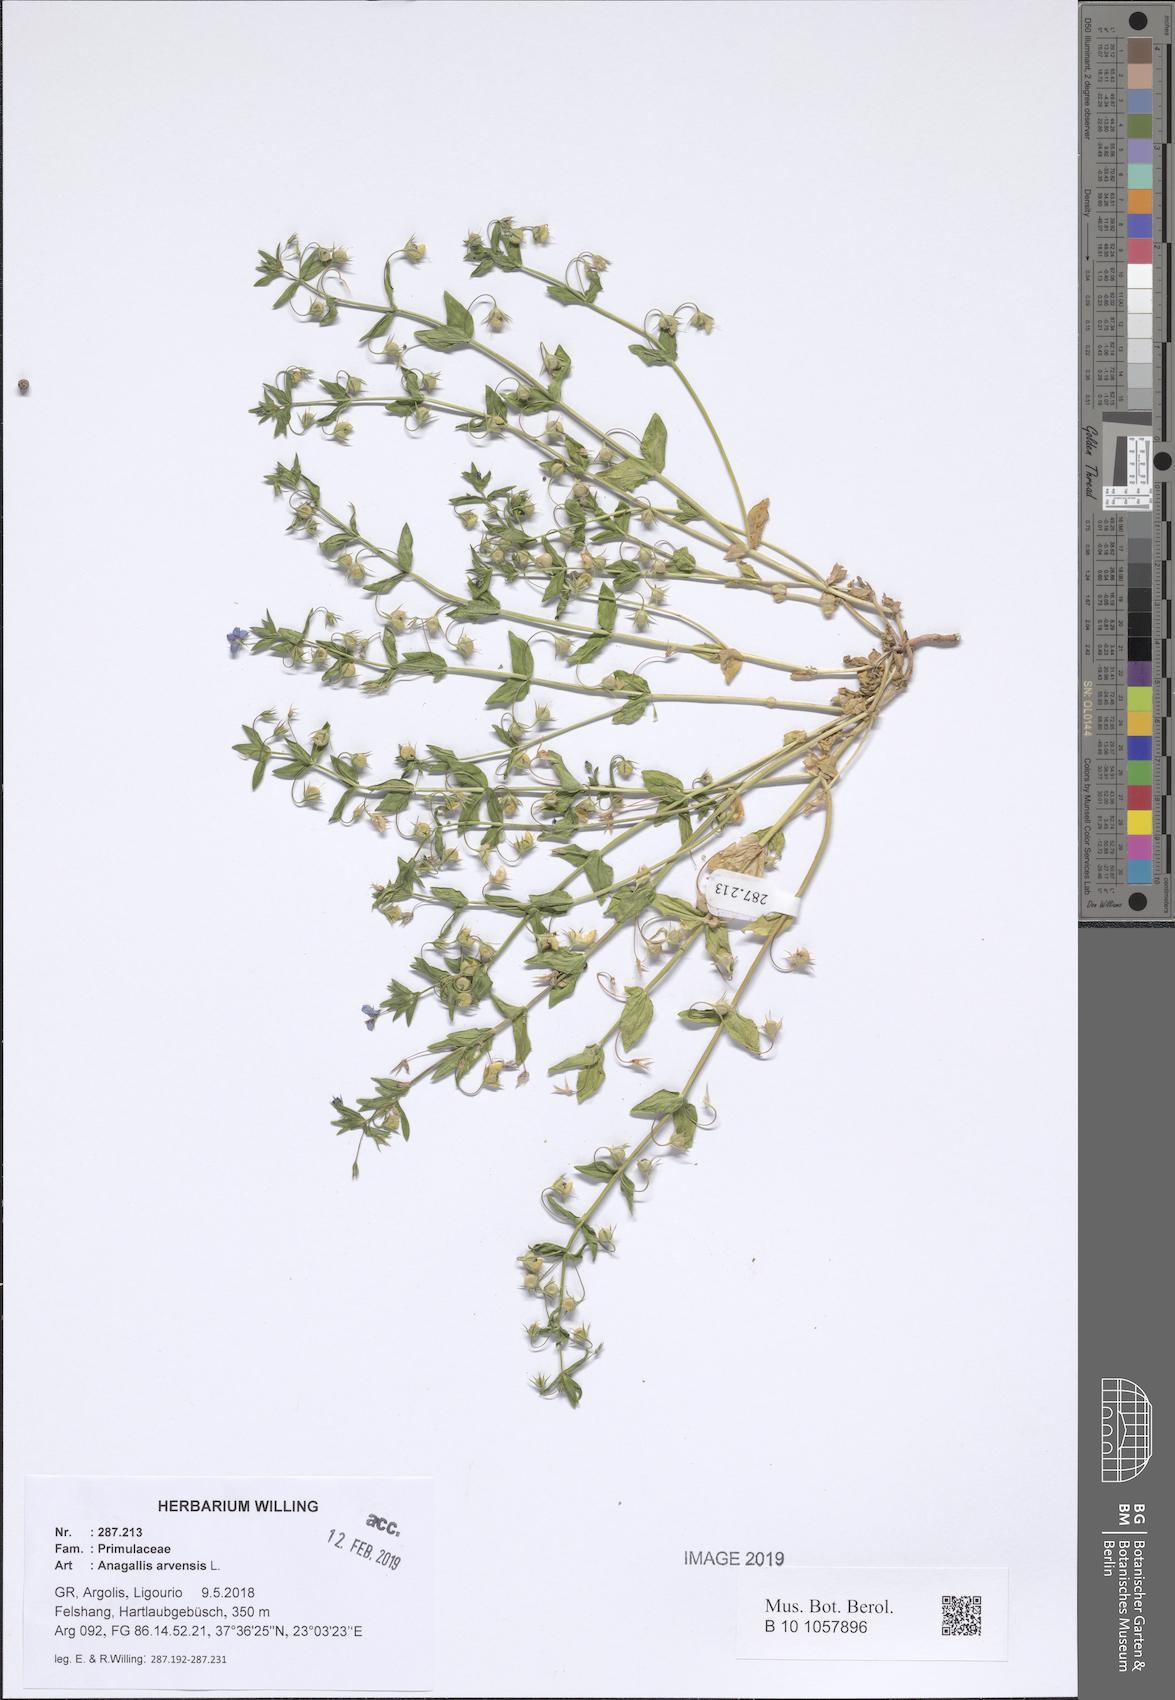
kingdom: Plantae
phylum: Tracheophyta
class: Magnoliopsida
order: Ericales
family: Primulaceae
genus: Lysimachia
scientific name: Lysimachia arvensis
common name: Scarlet pimpernel
